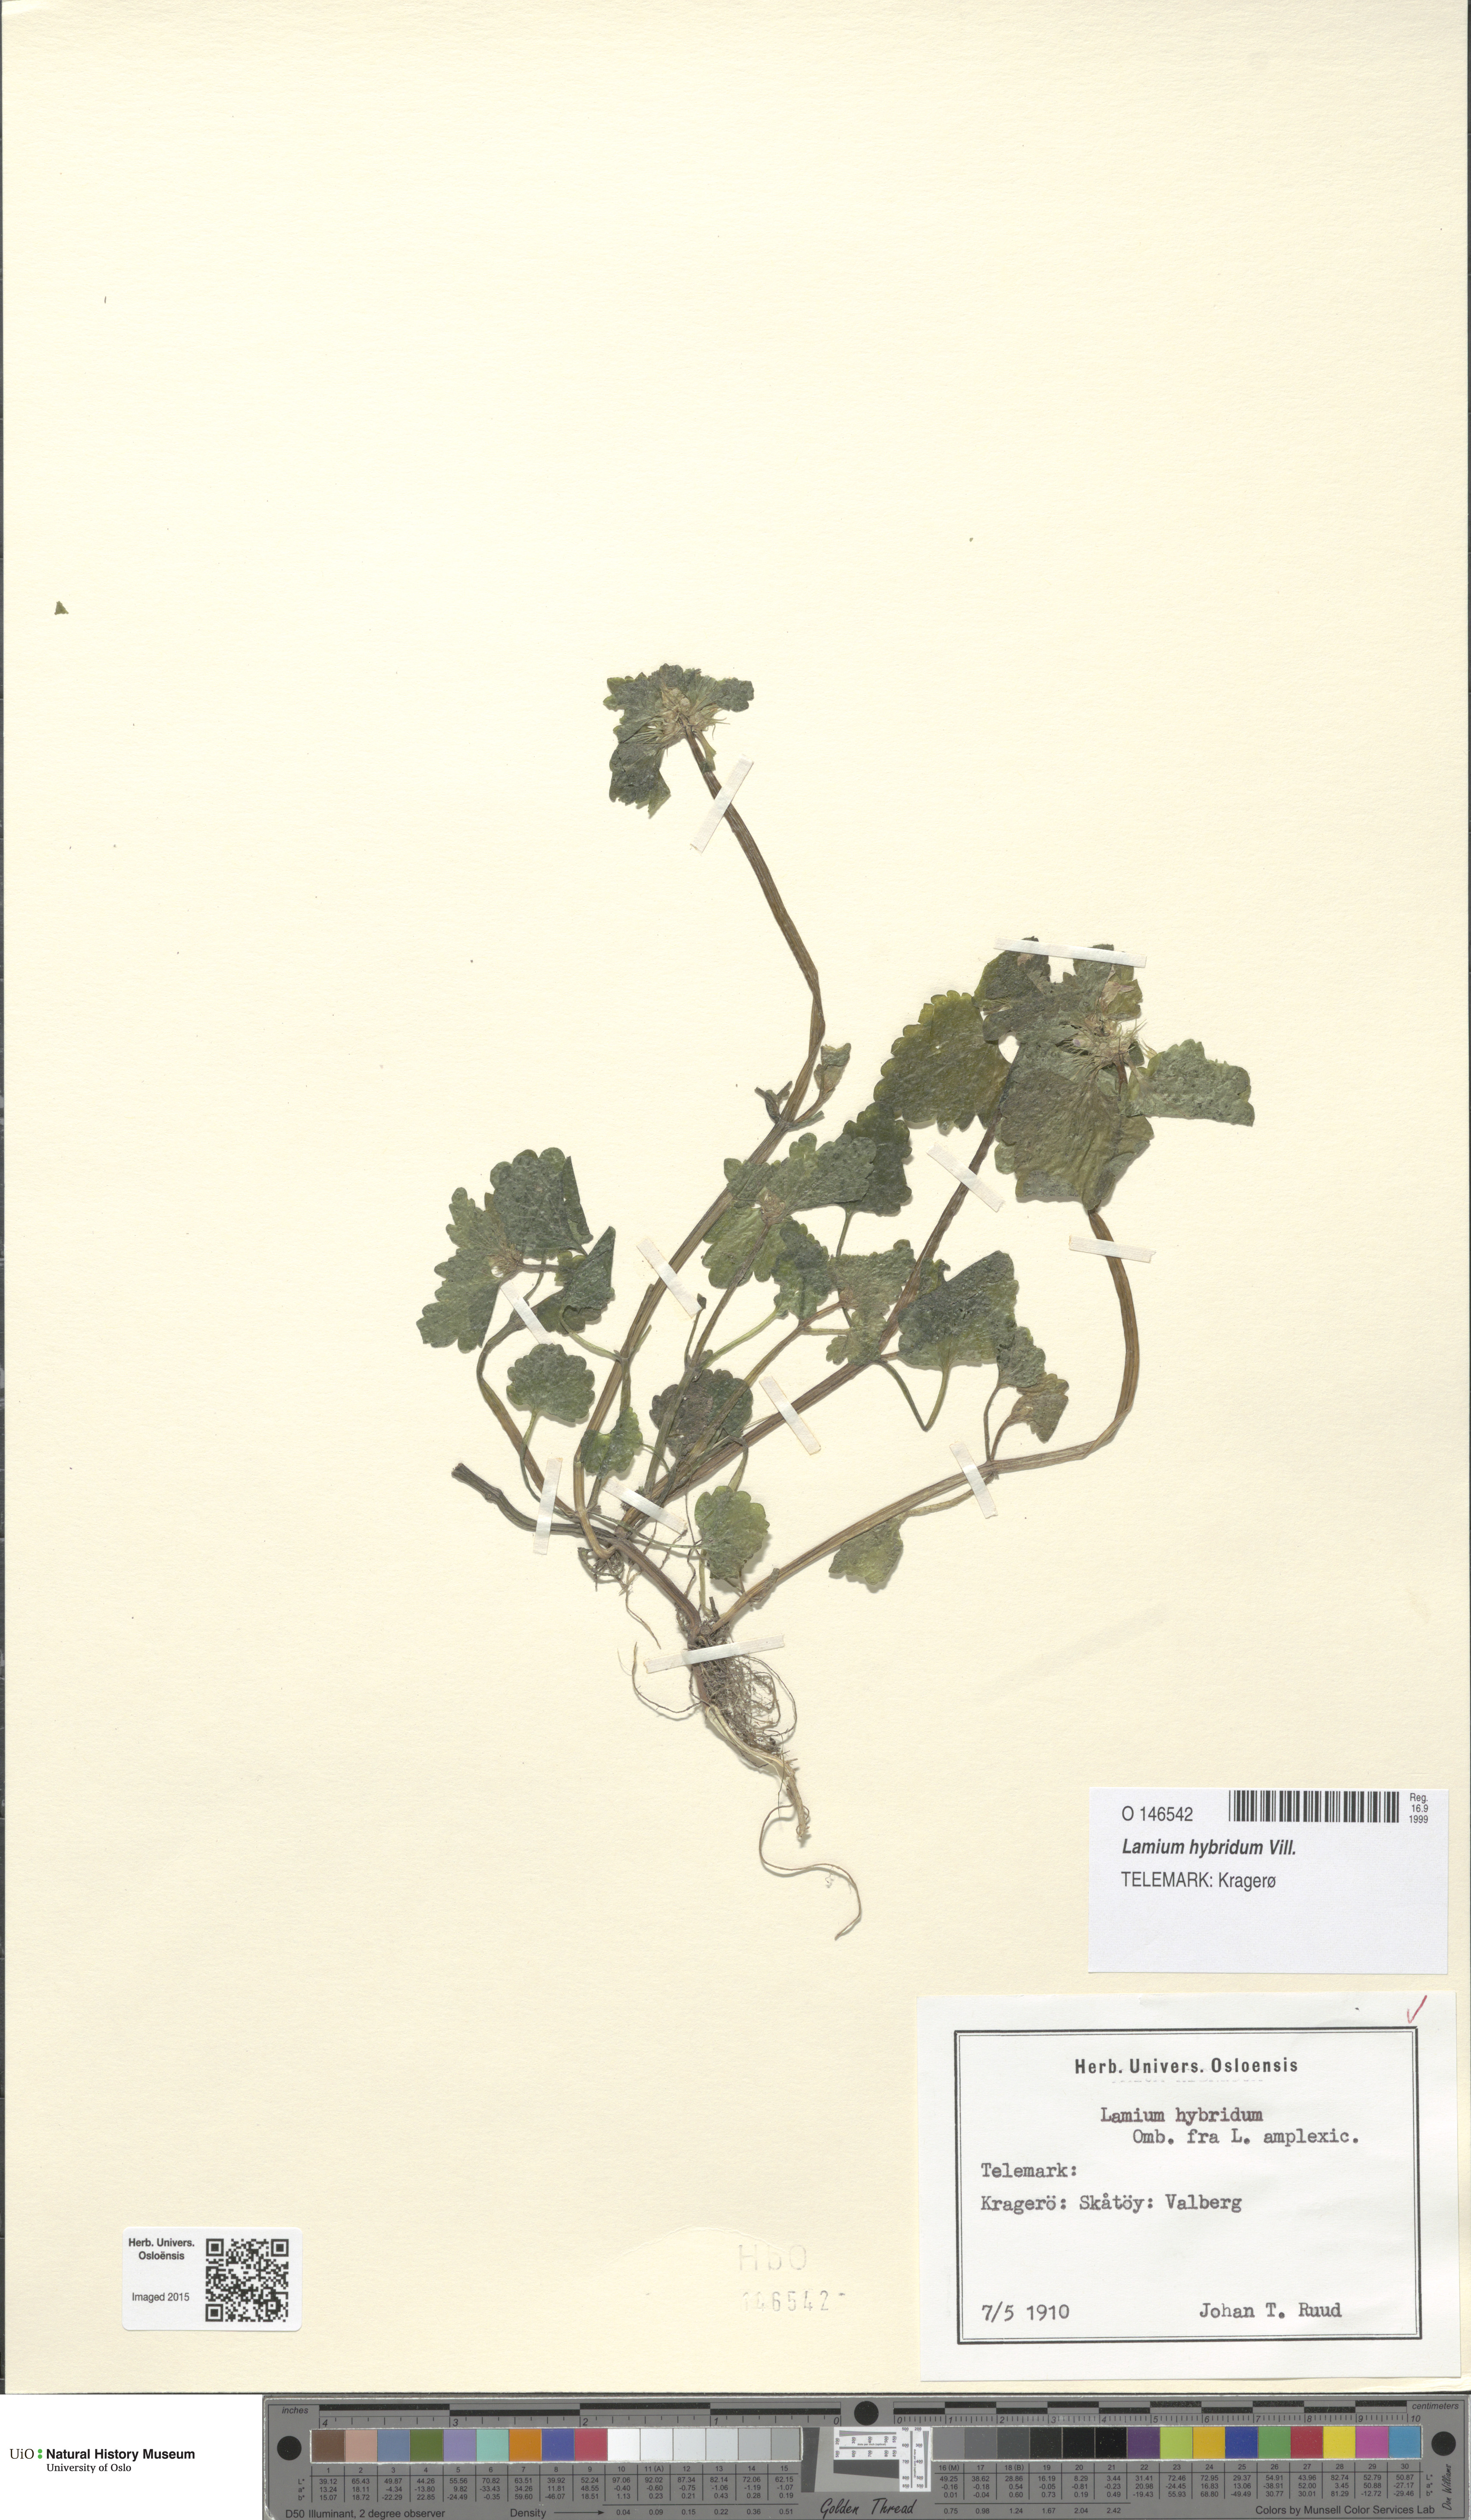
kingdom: Plantae
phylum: Tracheophyta
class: Magnoliopsida
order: Lamiales
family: Lamiaceae
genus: Lamium
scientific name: Lamium hybridum
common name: Cut-leaved dead-nettle
